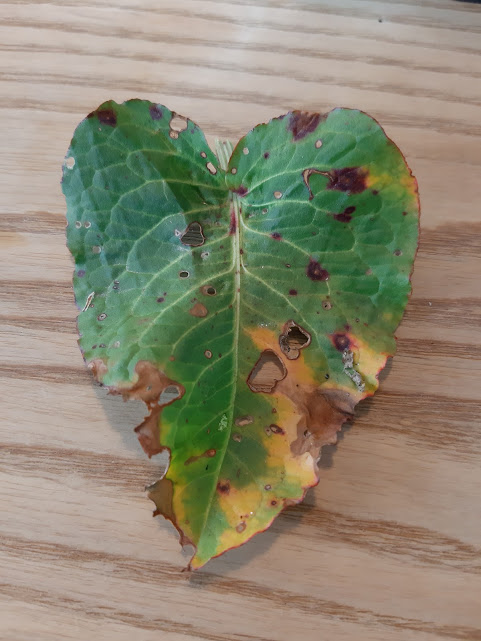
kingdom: Fungi
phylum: Ascomycota
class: Dothideomycetes
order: Capnodiales
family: Mycosphaerellaceae
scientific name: Mycosphaerellaceae
